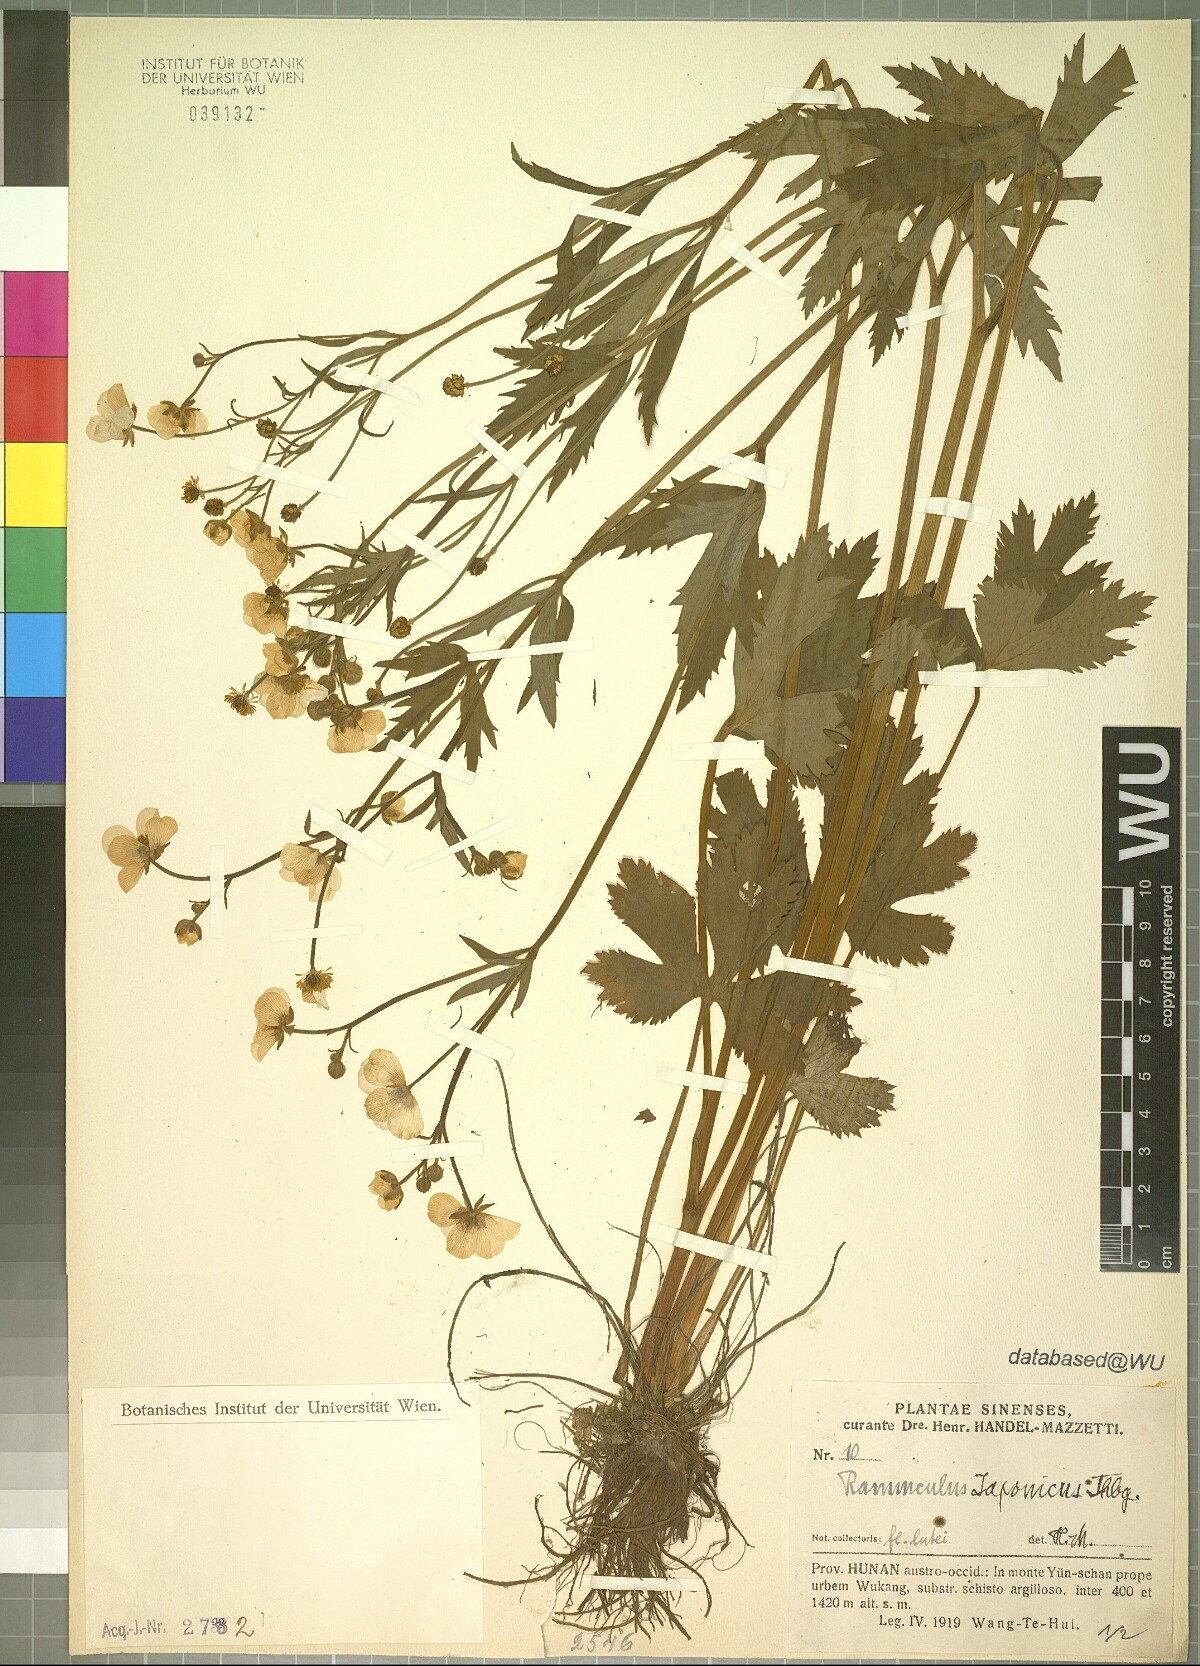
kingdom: Plantae
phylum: Tracheophyta
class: Magnoliopsida
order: Ranunculales
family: Ranunculaceae
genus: Ranunculus
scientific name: Ranunculus japonicus
